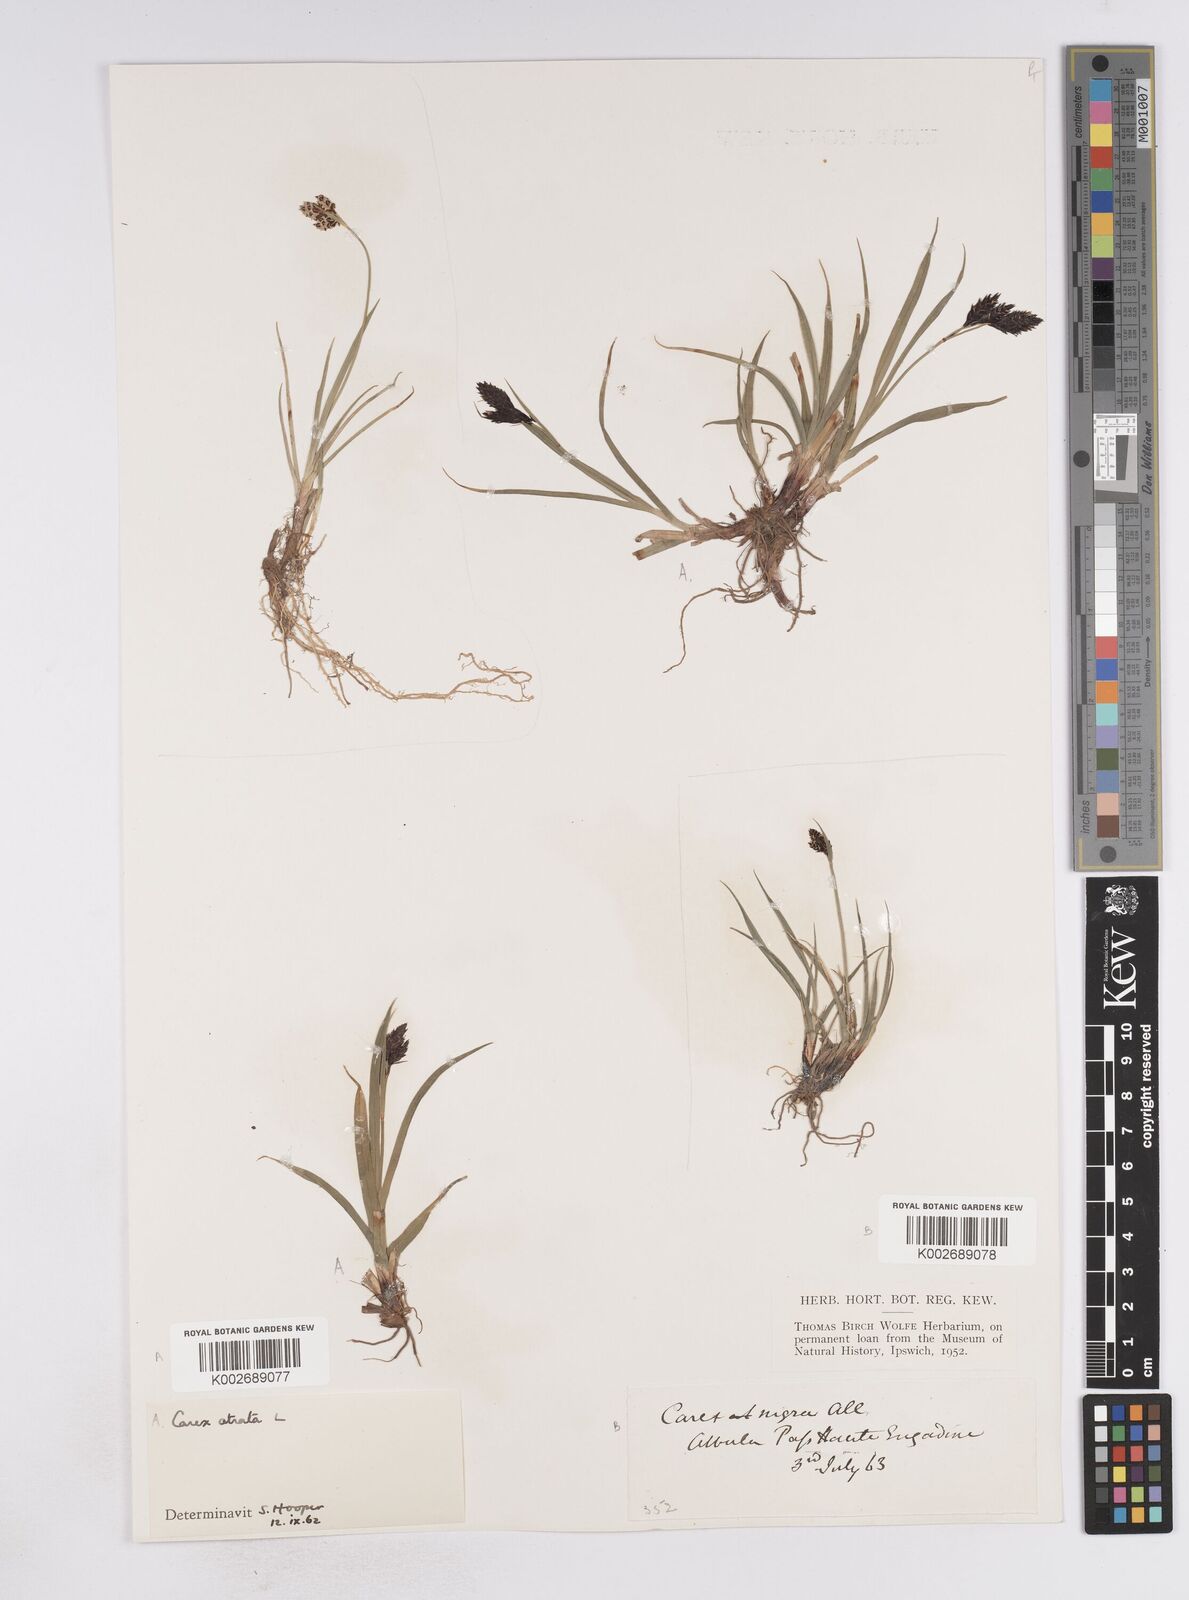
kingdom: Plantae
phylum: Tracheophyta
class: Liliopsida
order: Poales
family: Cyperaceae
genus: Carex
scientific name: Carex atrata
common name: Black alpine sedge
